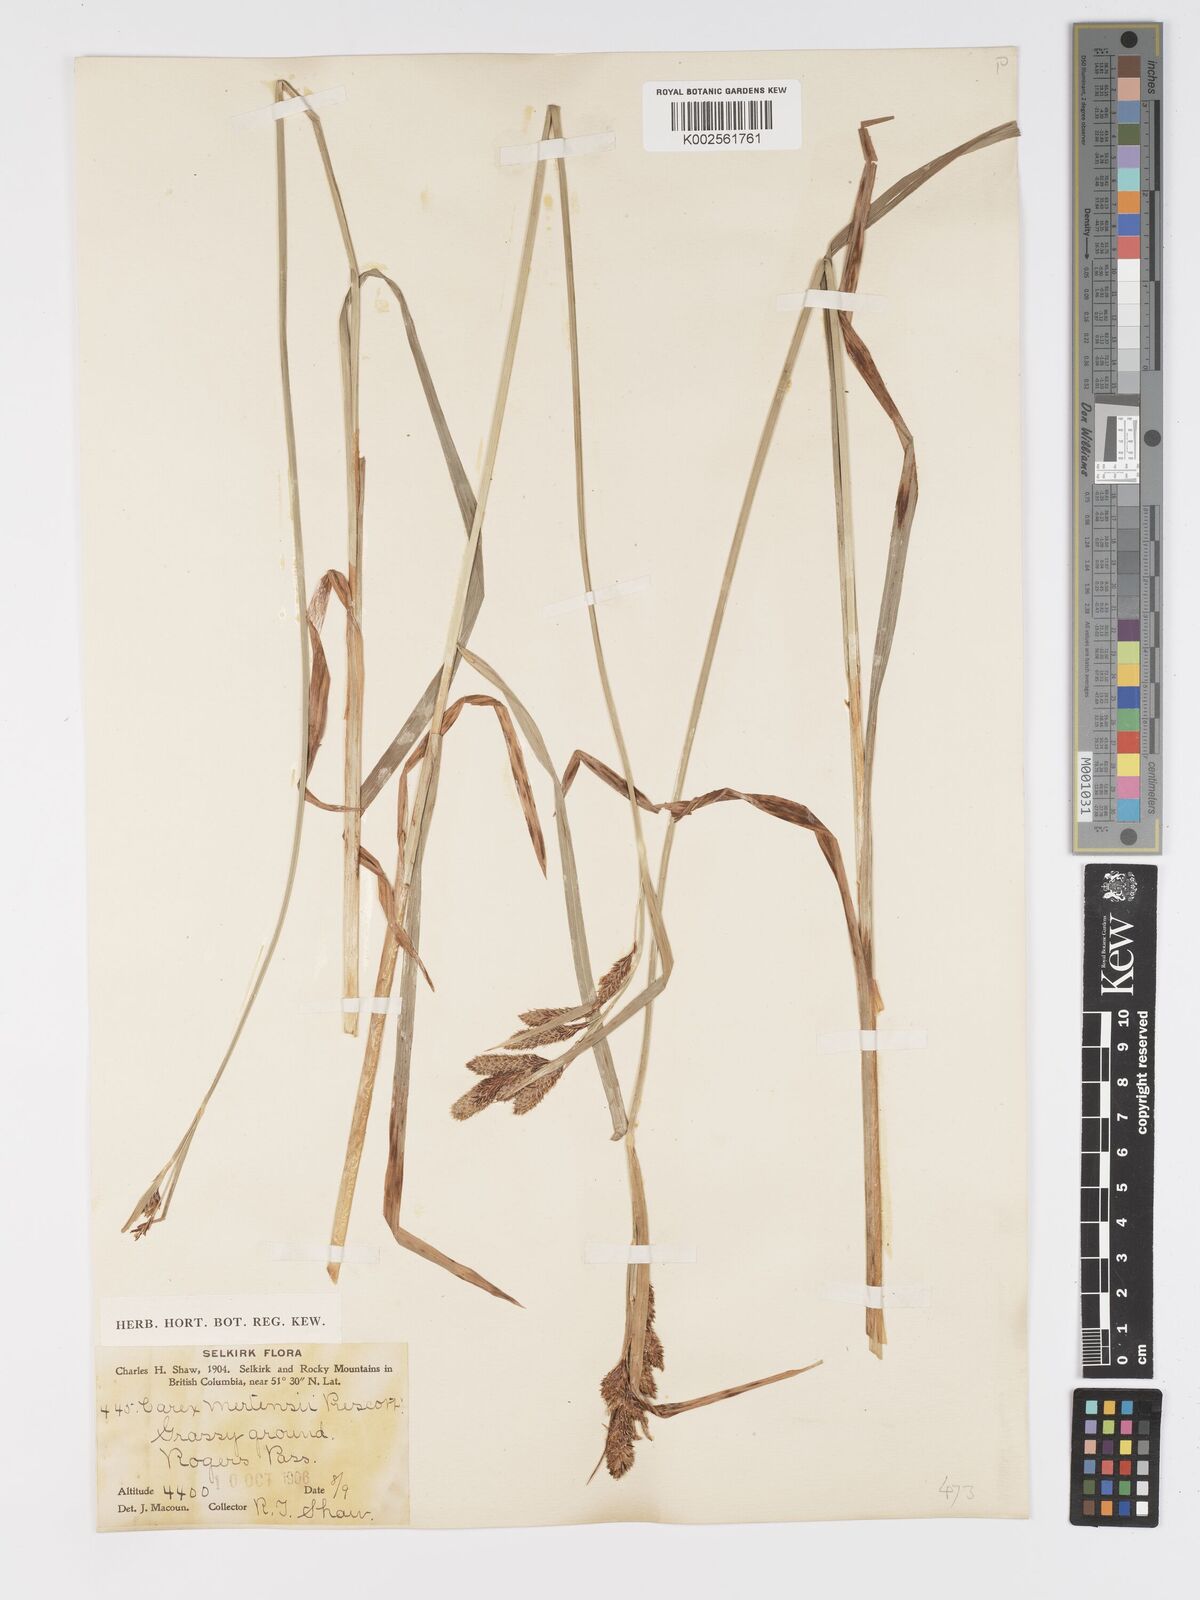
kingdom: Plantae
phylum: Tracheophyta
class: Liliopsida
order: Poales
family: Cyperaceae
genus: Carex
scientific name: Carex mertensii
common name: Mertens' sedge
